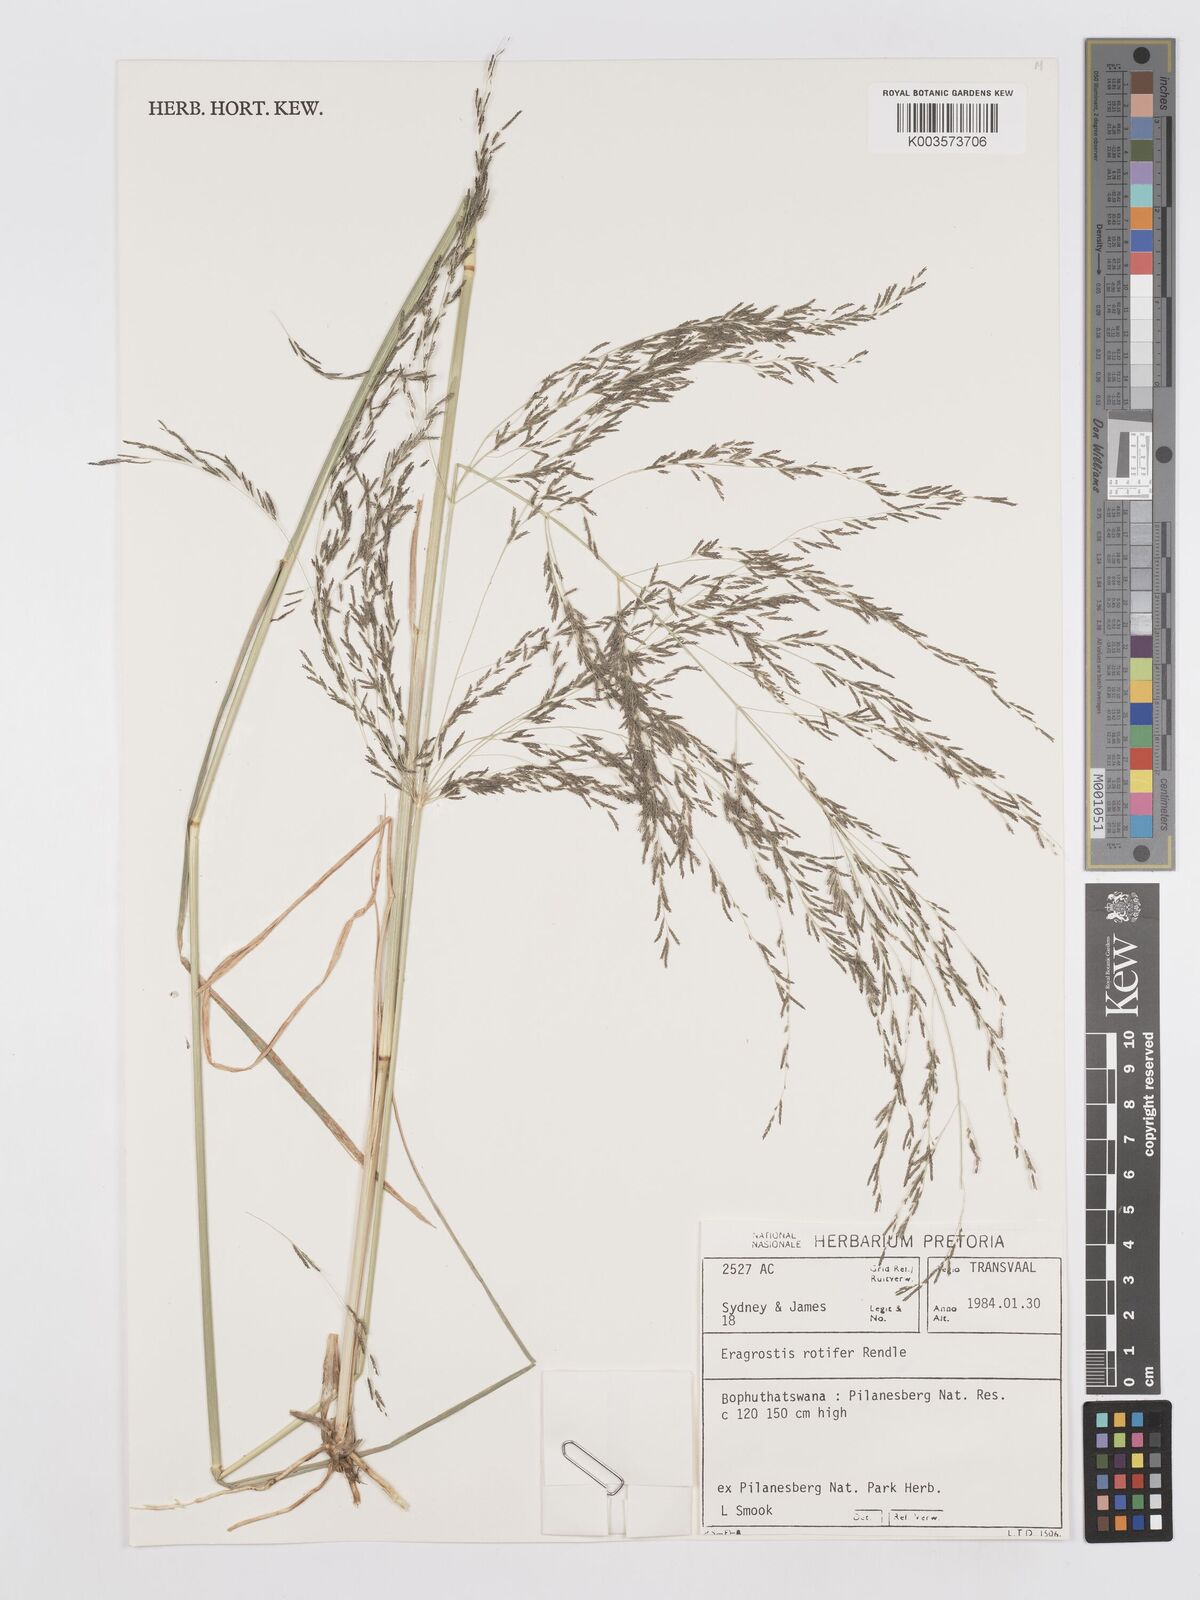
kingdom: Plantae
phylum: Tracheophyta
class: Liliopsida
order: Poales
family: Poaceae
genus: Eragrostis
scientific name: Eragrostis rotifer
